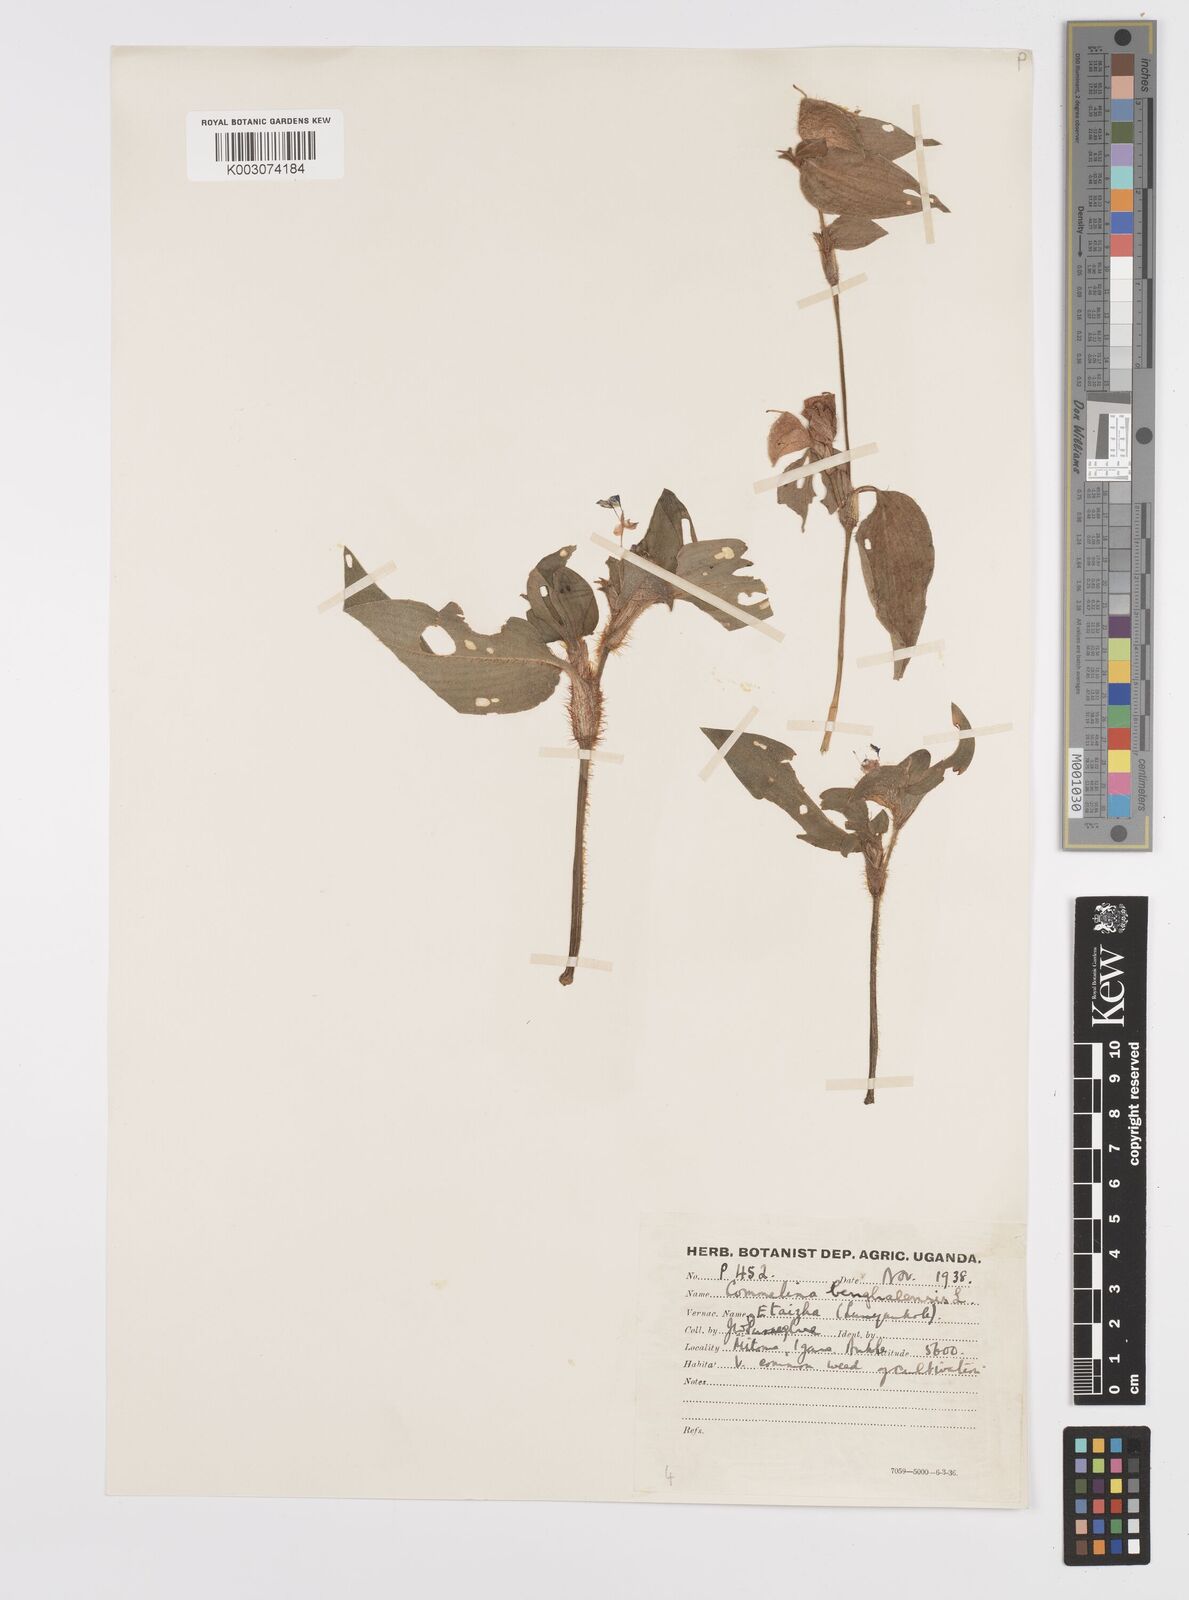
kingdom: Plantae
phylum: Tracheophyta
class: Liliopsida
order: Commelinales
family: Commelinaceae
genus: Commelina
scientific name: Commelina benghalensis
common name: Jio
